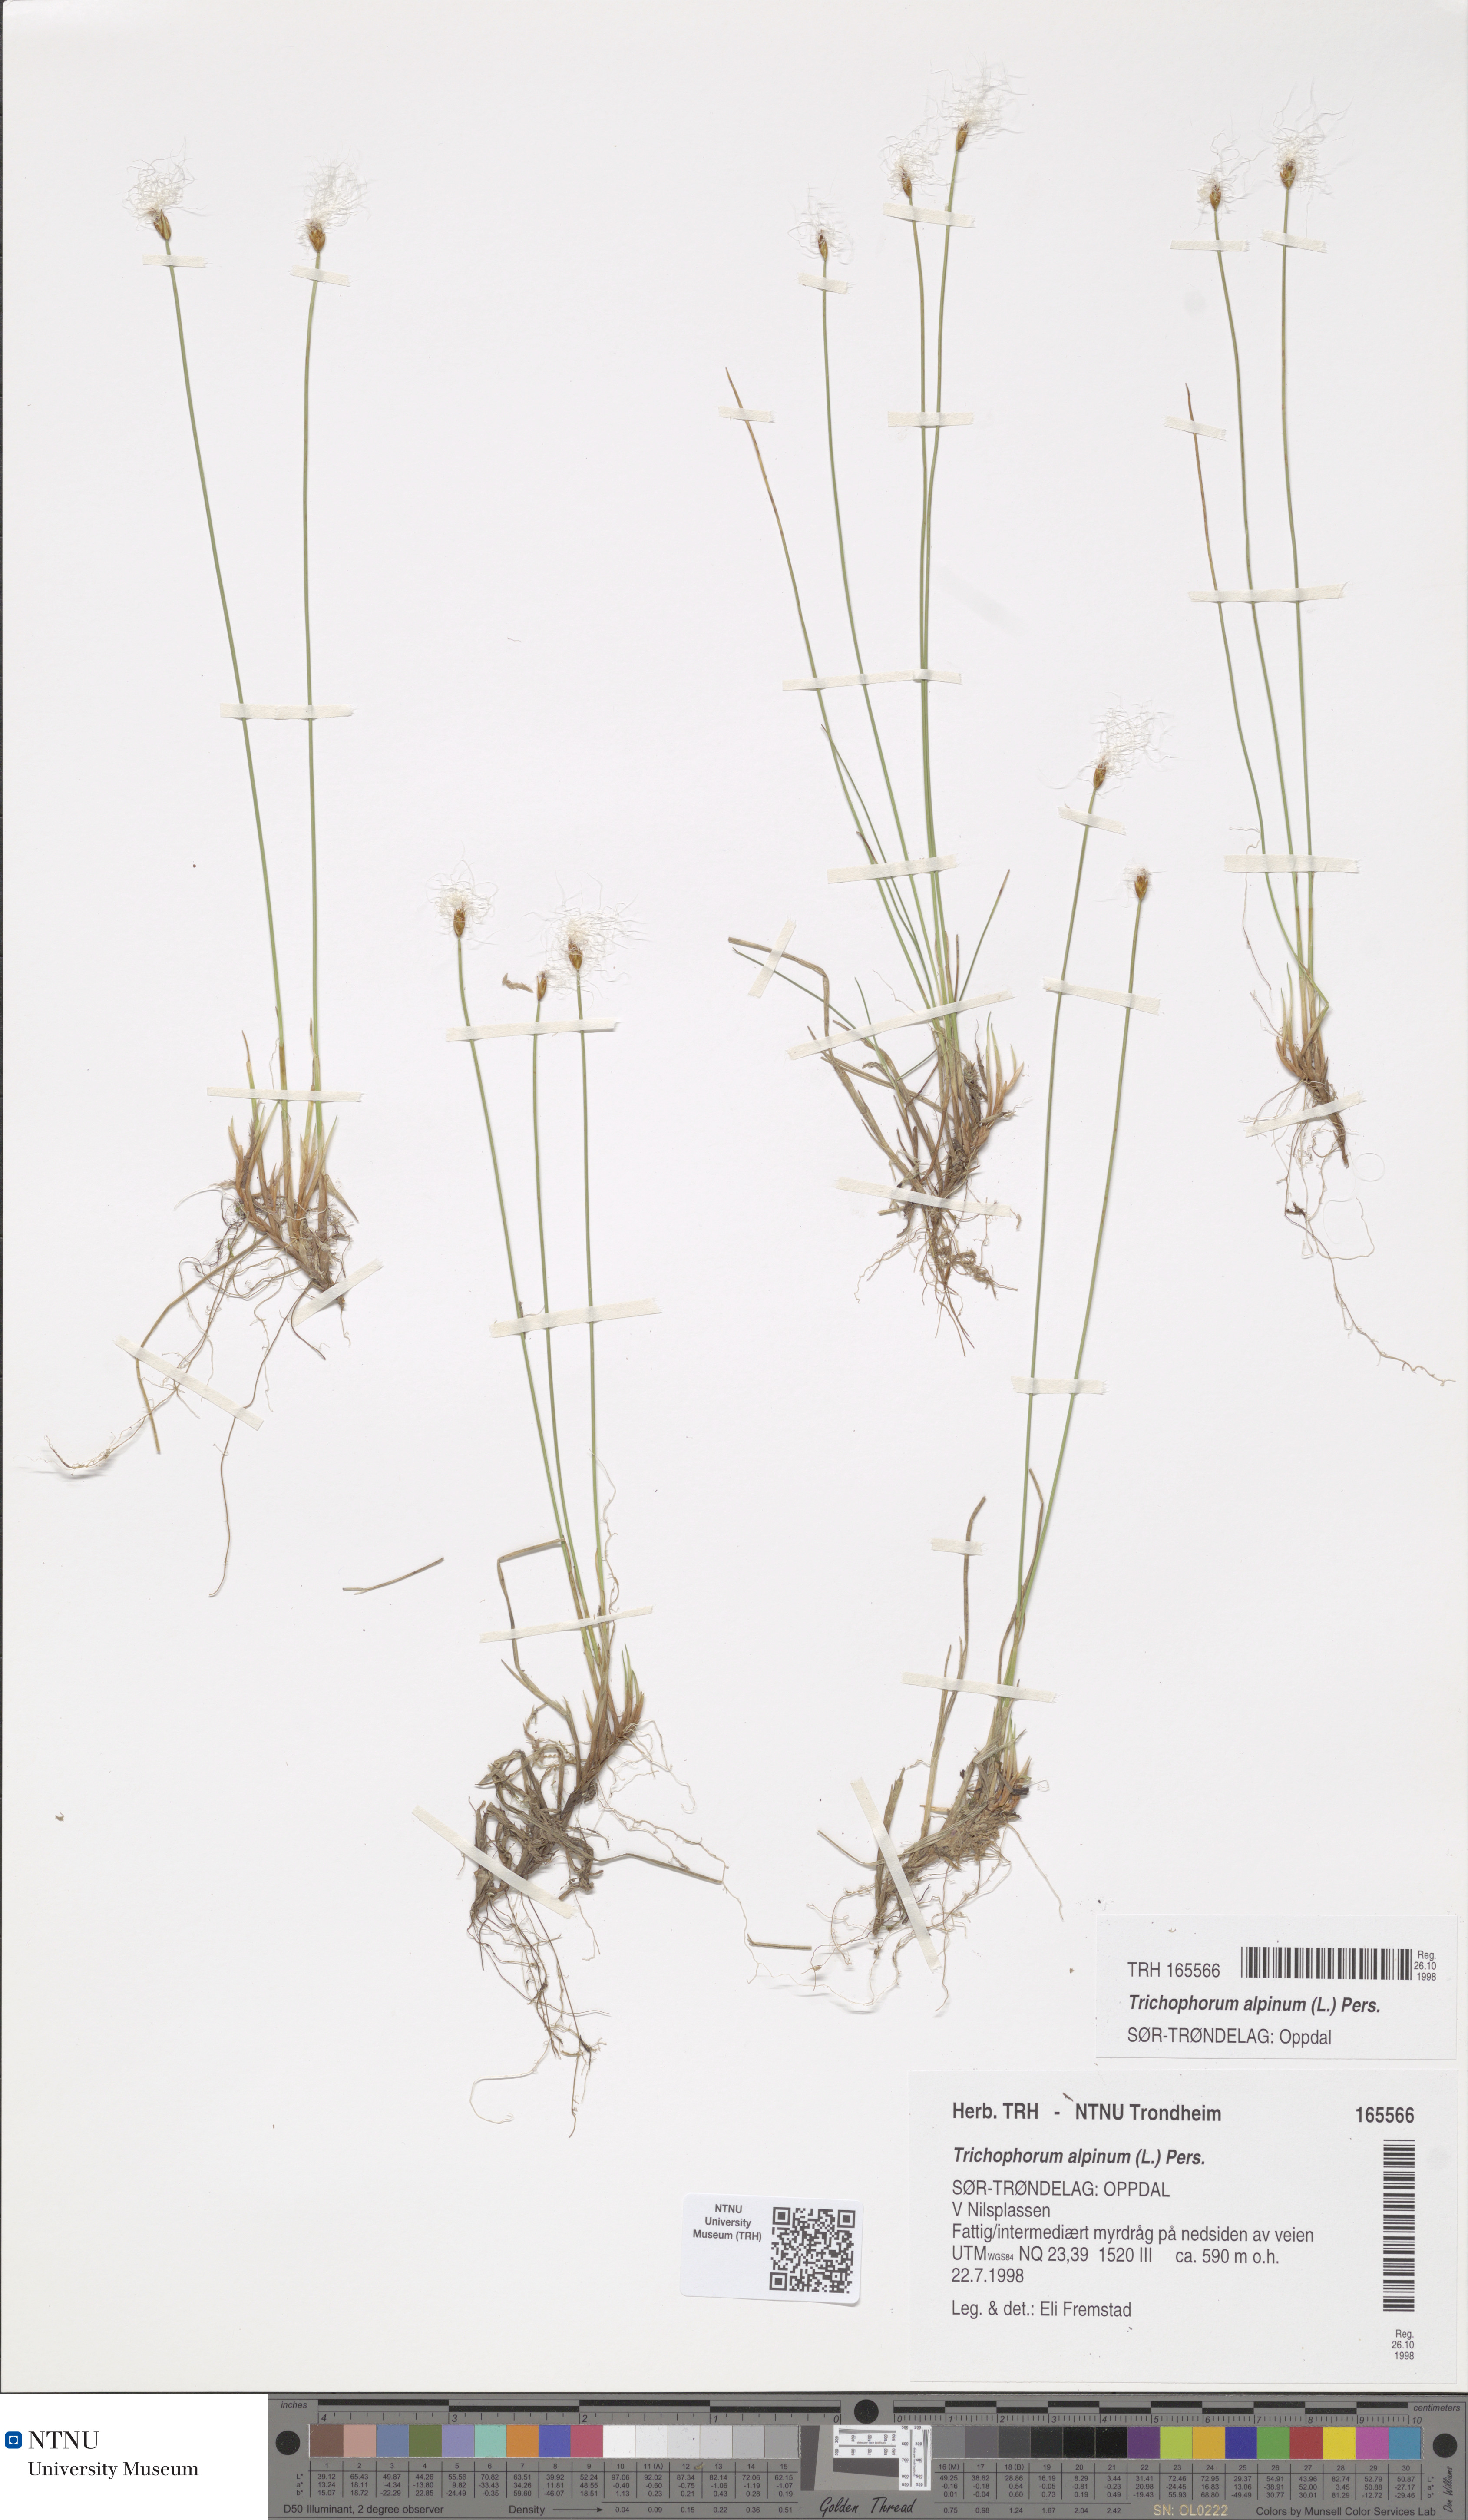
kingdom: Plantae
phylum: Tracheophyta
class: Liliopsida
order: Poales
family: Cyperaceae
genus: Trichophorum
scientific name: Trichophorum alpinum
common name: Alpine bulrush
